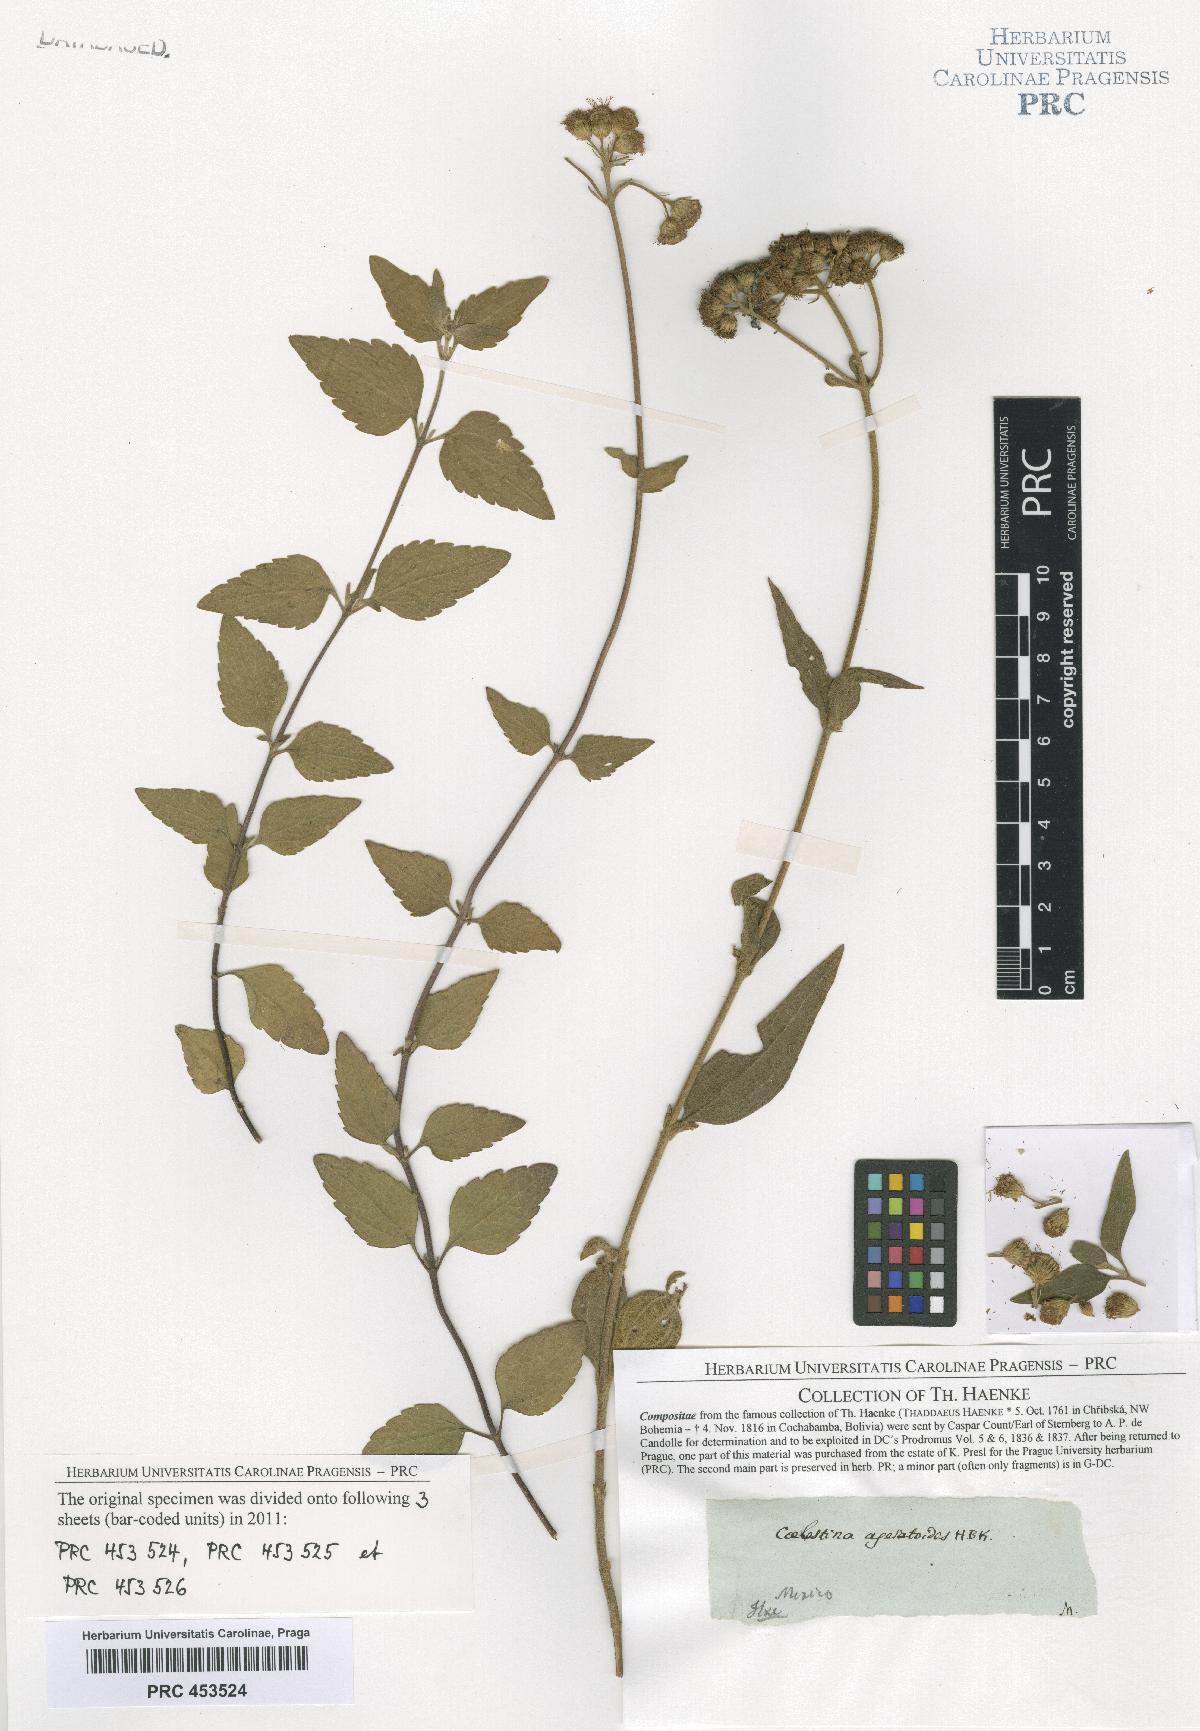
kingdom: Plantae
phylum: Tracheophyta
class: Magnoliopsida
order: Asterales
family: Asteraceae
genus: Ageratum
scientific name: Ageratum corymbosum
